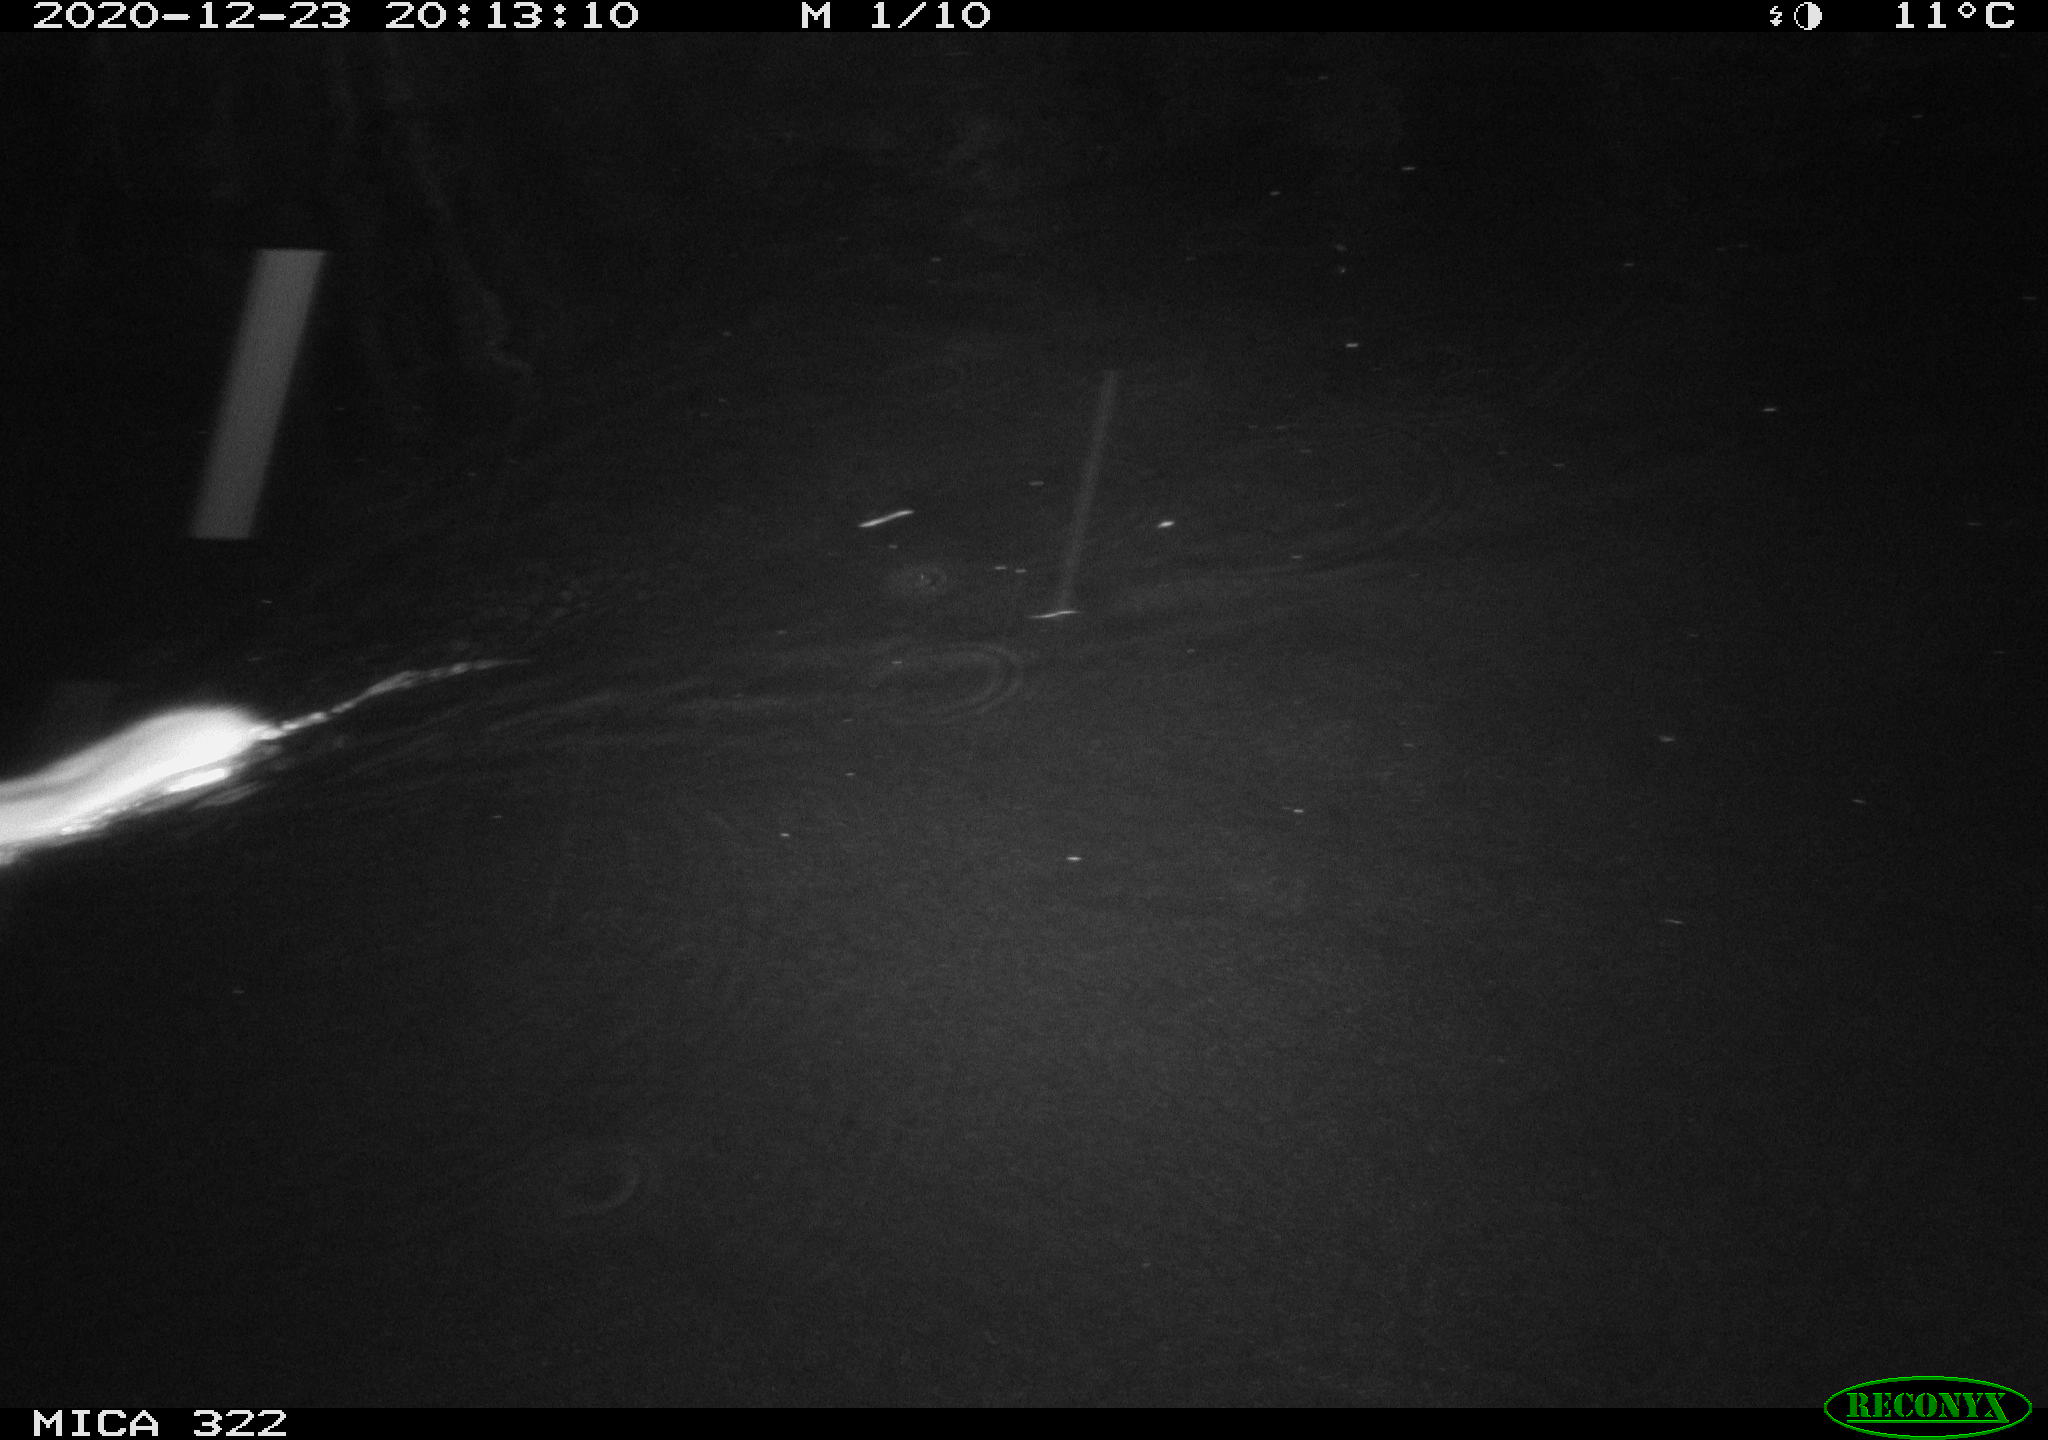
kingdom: Animalia
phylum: Chordata
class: Mammalia
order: Rodentia
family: Muridae
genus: Rattus
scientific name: Rattus norvegicus
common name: Brown rat
